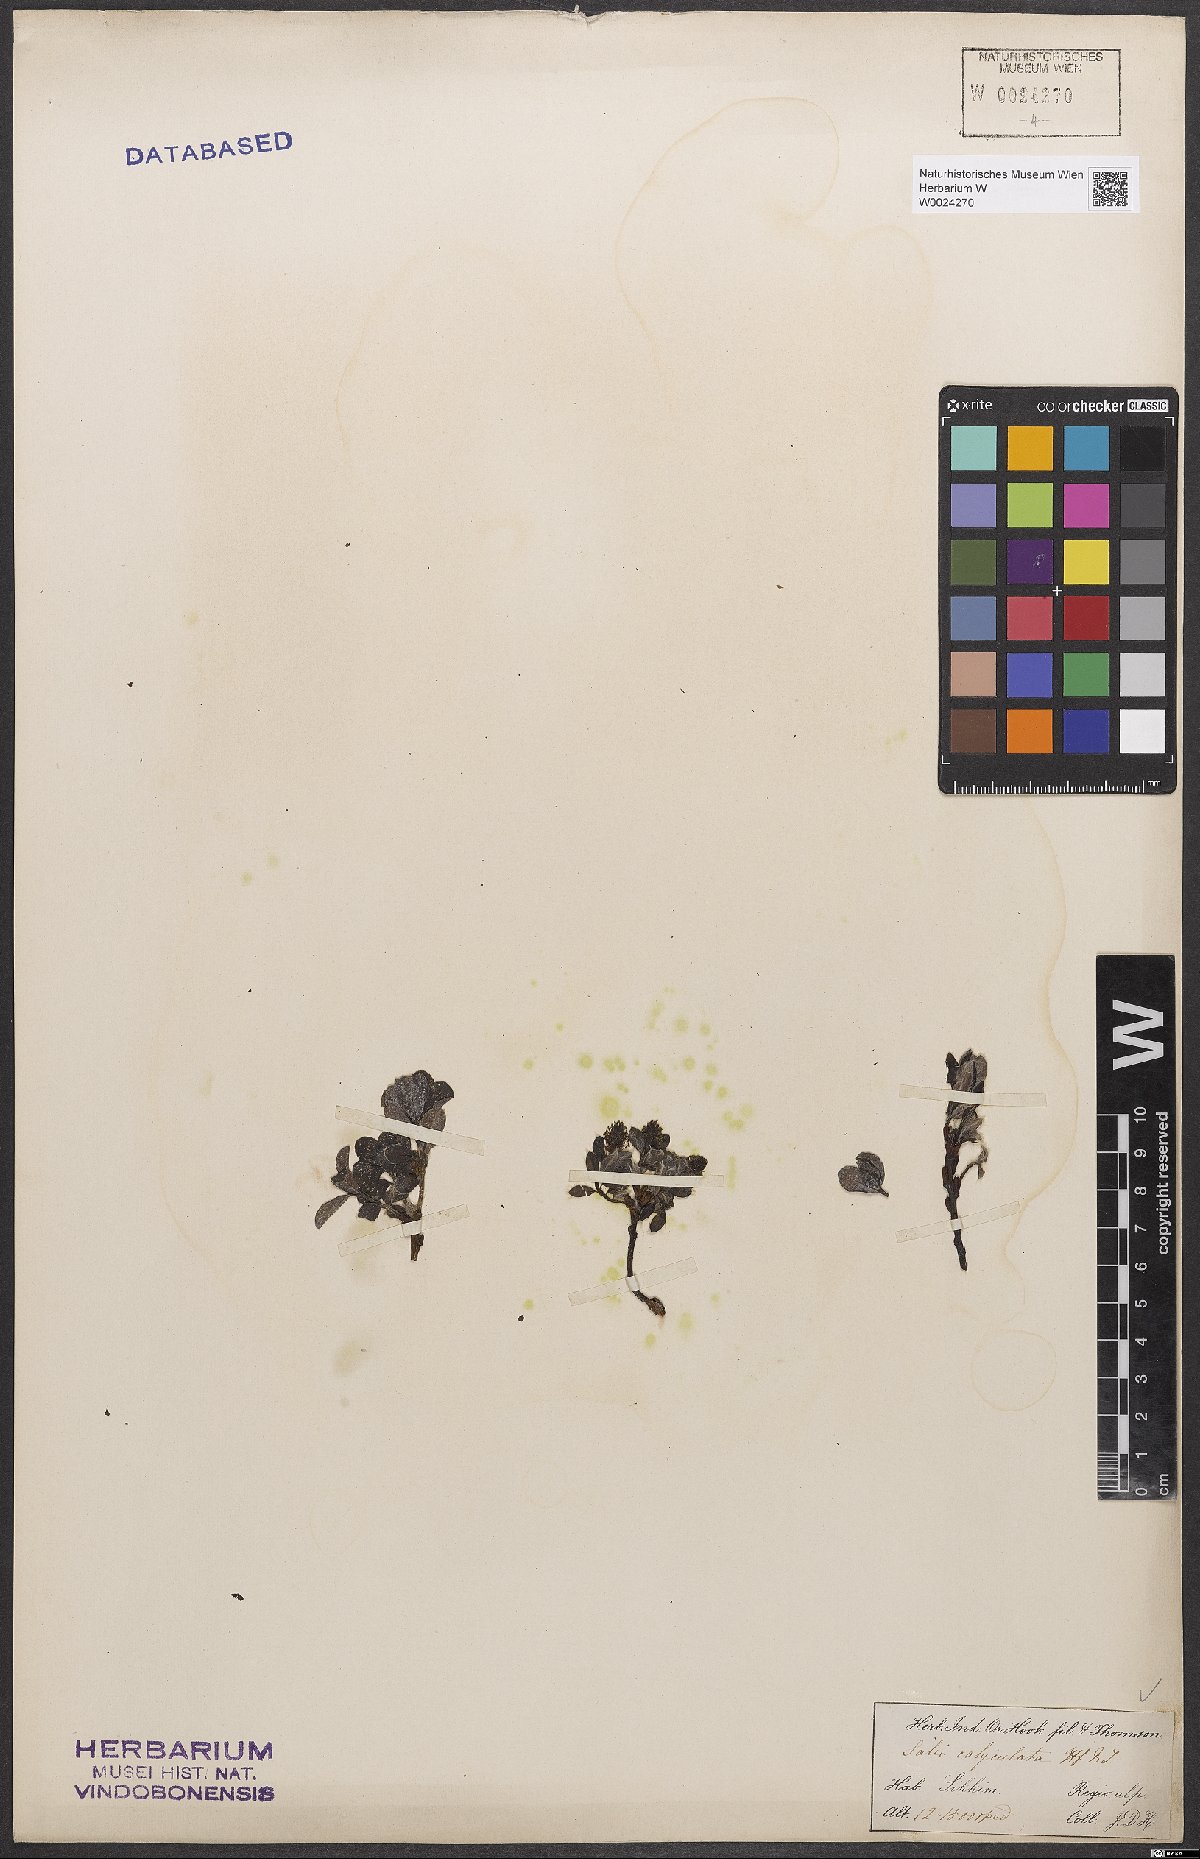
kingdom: Plantae
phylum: Tracheophyta
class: Magnoliopsida
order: Malpighiales
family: Salicaceae
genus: Salix
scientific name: Salix calyculata
